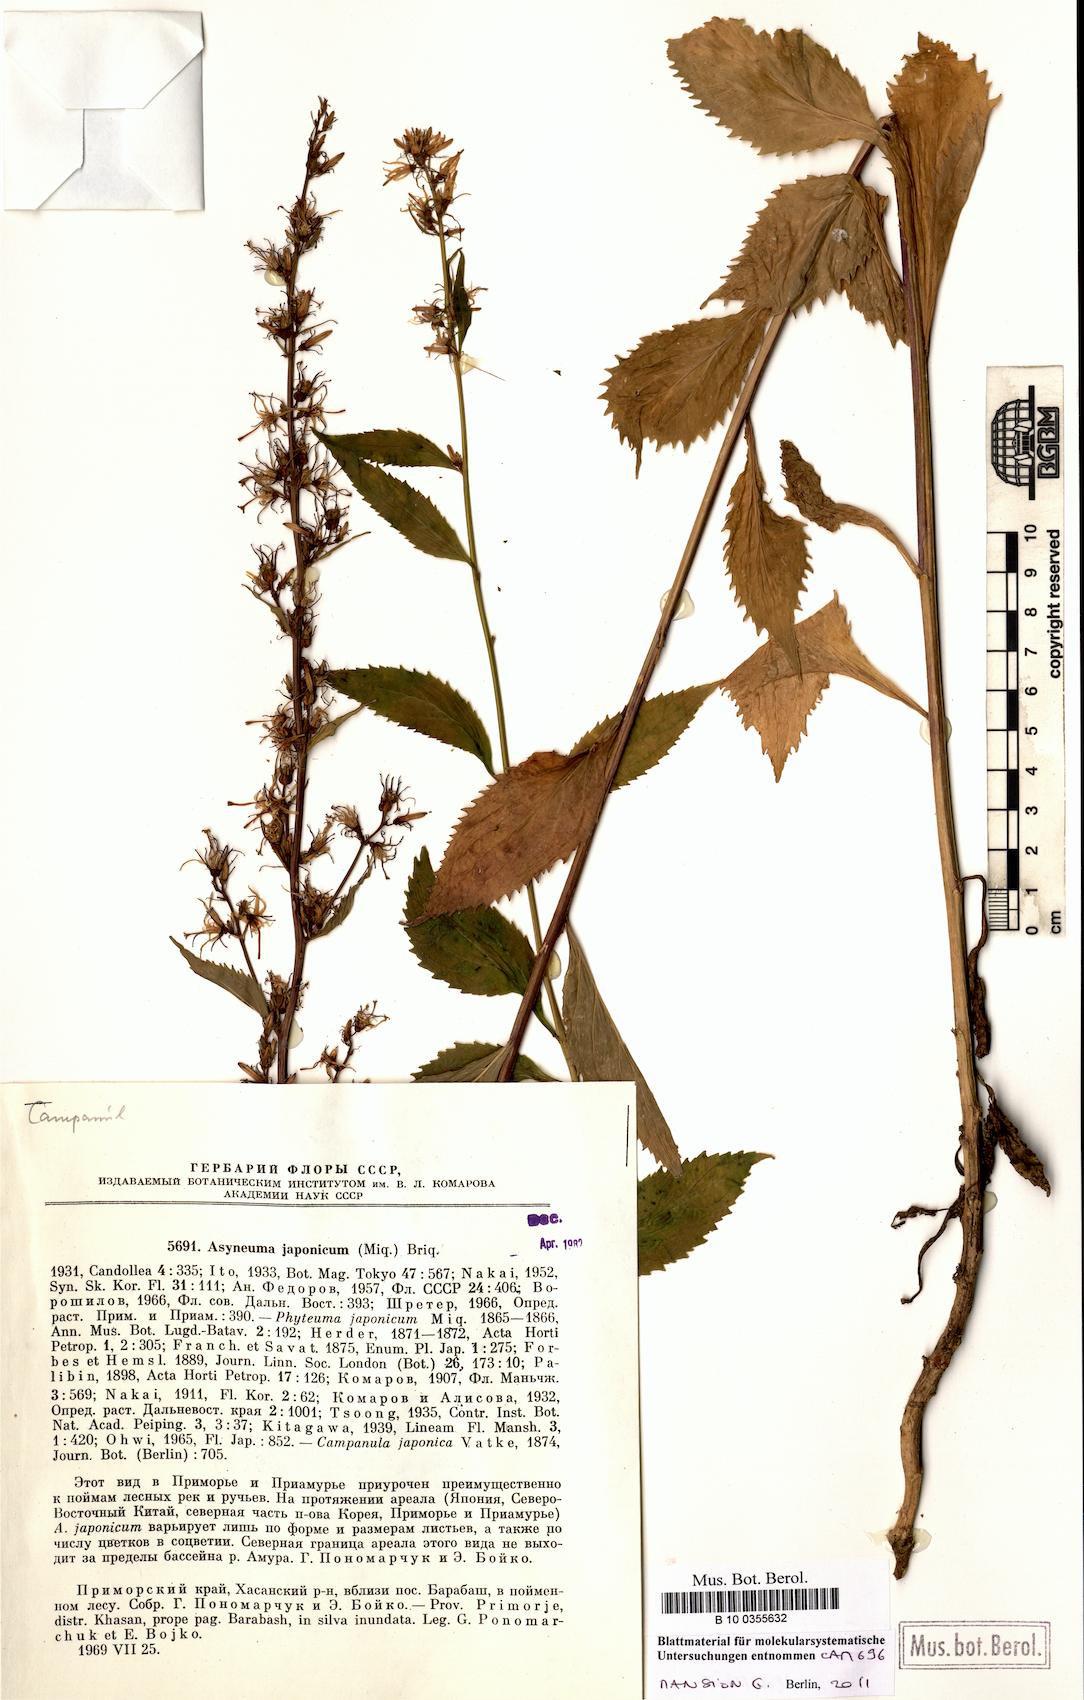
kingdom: Plantae
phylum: Tracheophyta
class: Magnoliopsida
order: Asterales
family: Campanulaceae
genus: Asyneuma
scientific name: Asyneuma japonicum
